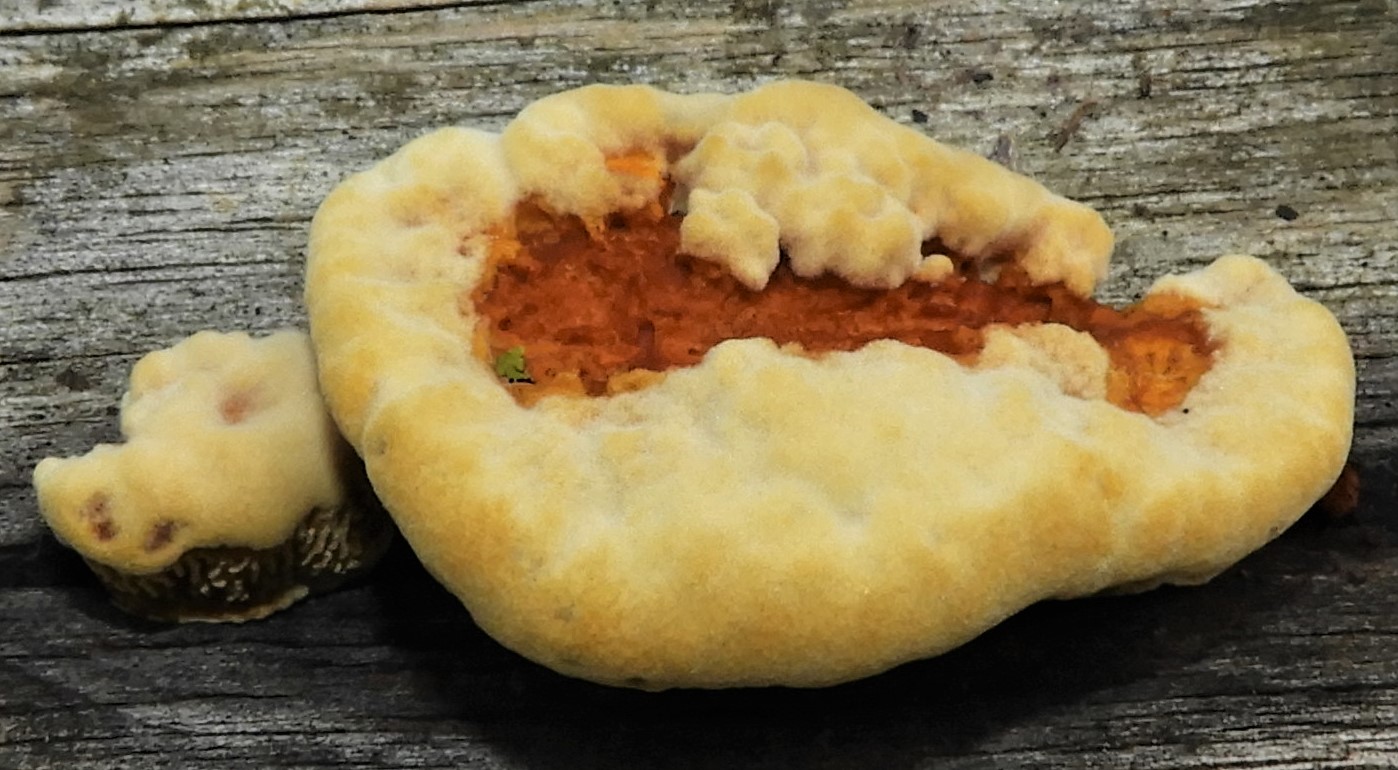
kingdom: Fungi
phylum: Basidiomycota
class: Agaricomycetes
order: Gloeophyllales
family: Gloeophyllaceae
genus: Gloeophyllum
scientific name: Gloeophyllum sepiarium
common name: fyrre-korkhat
